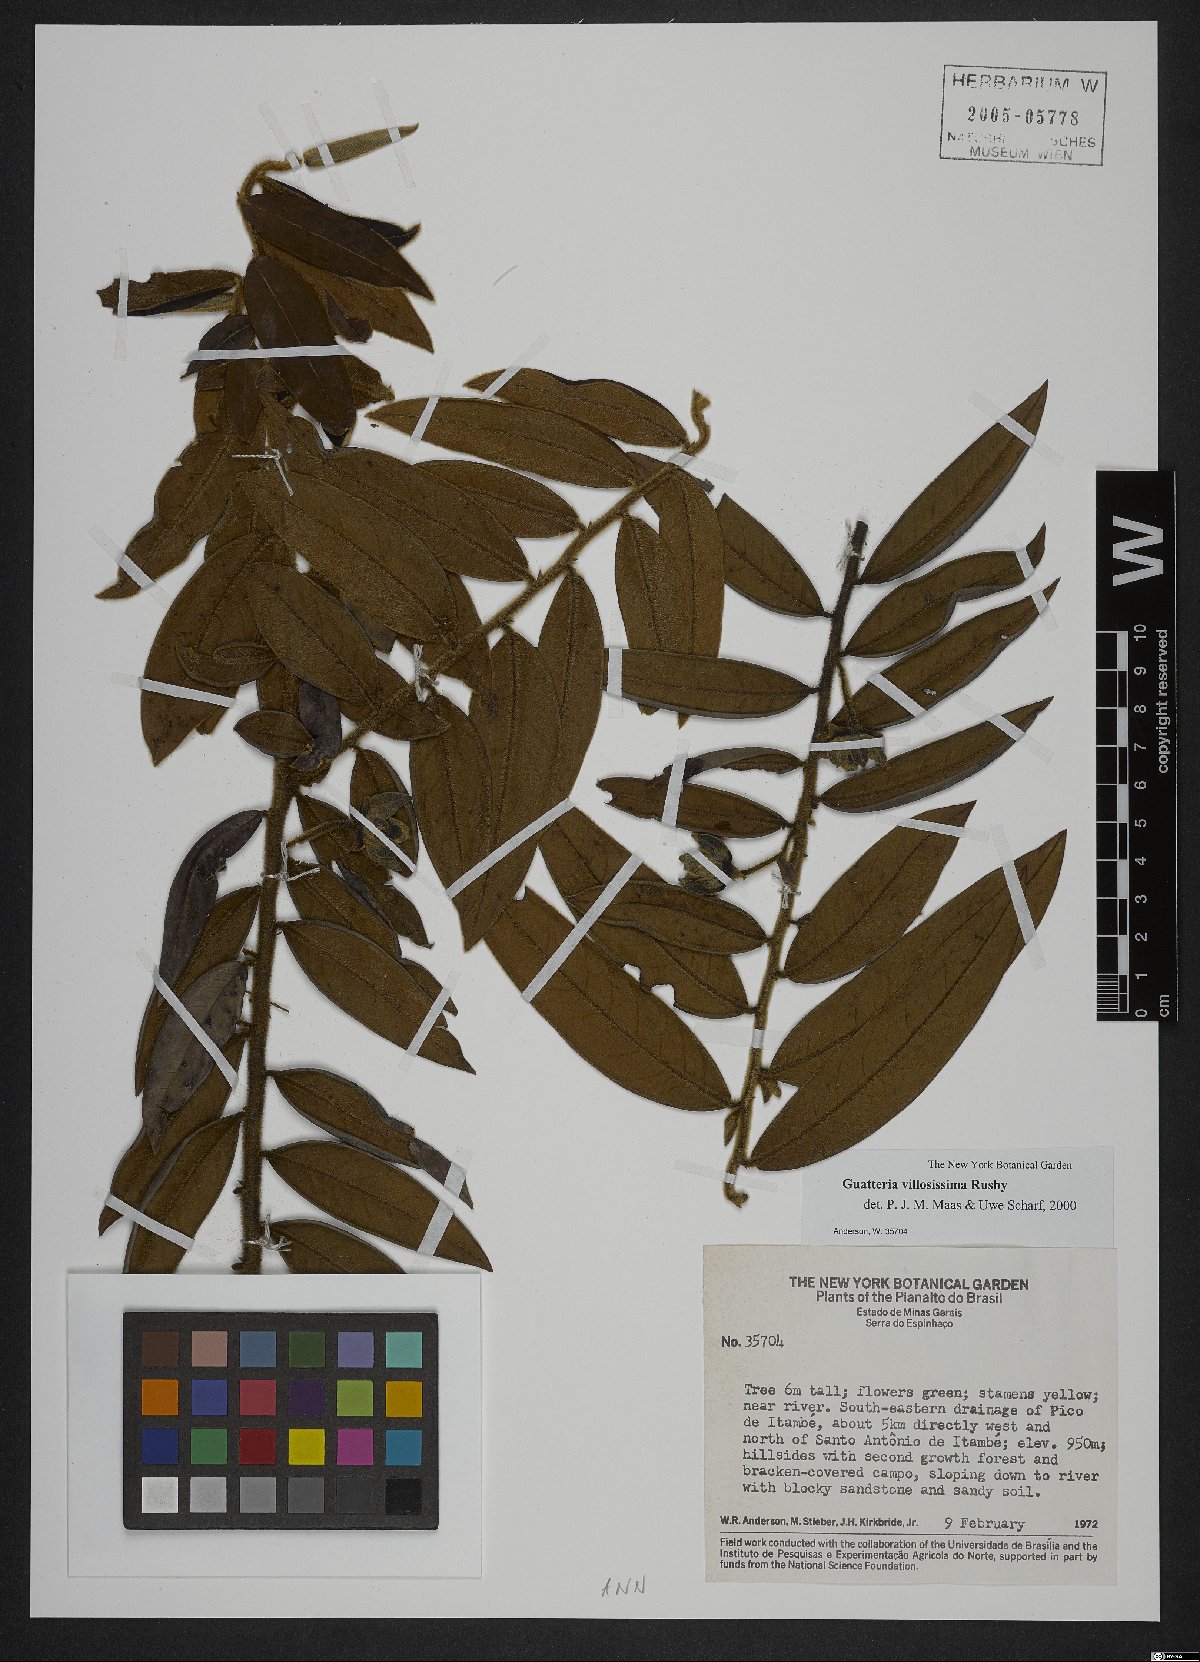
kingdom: Plantae
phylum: Tracheophyta
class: Magnoliopsida
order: Magnoliales
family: Annonaceae
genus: Guatteria
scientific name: Guatteria villosissima
